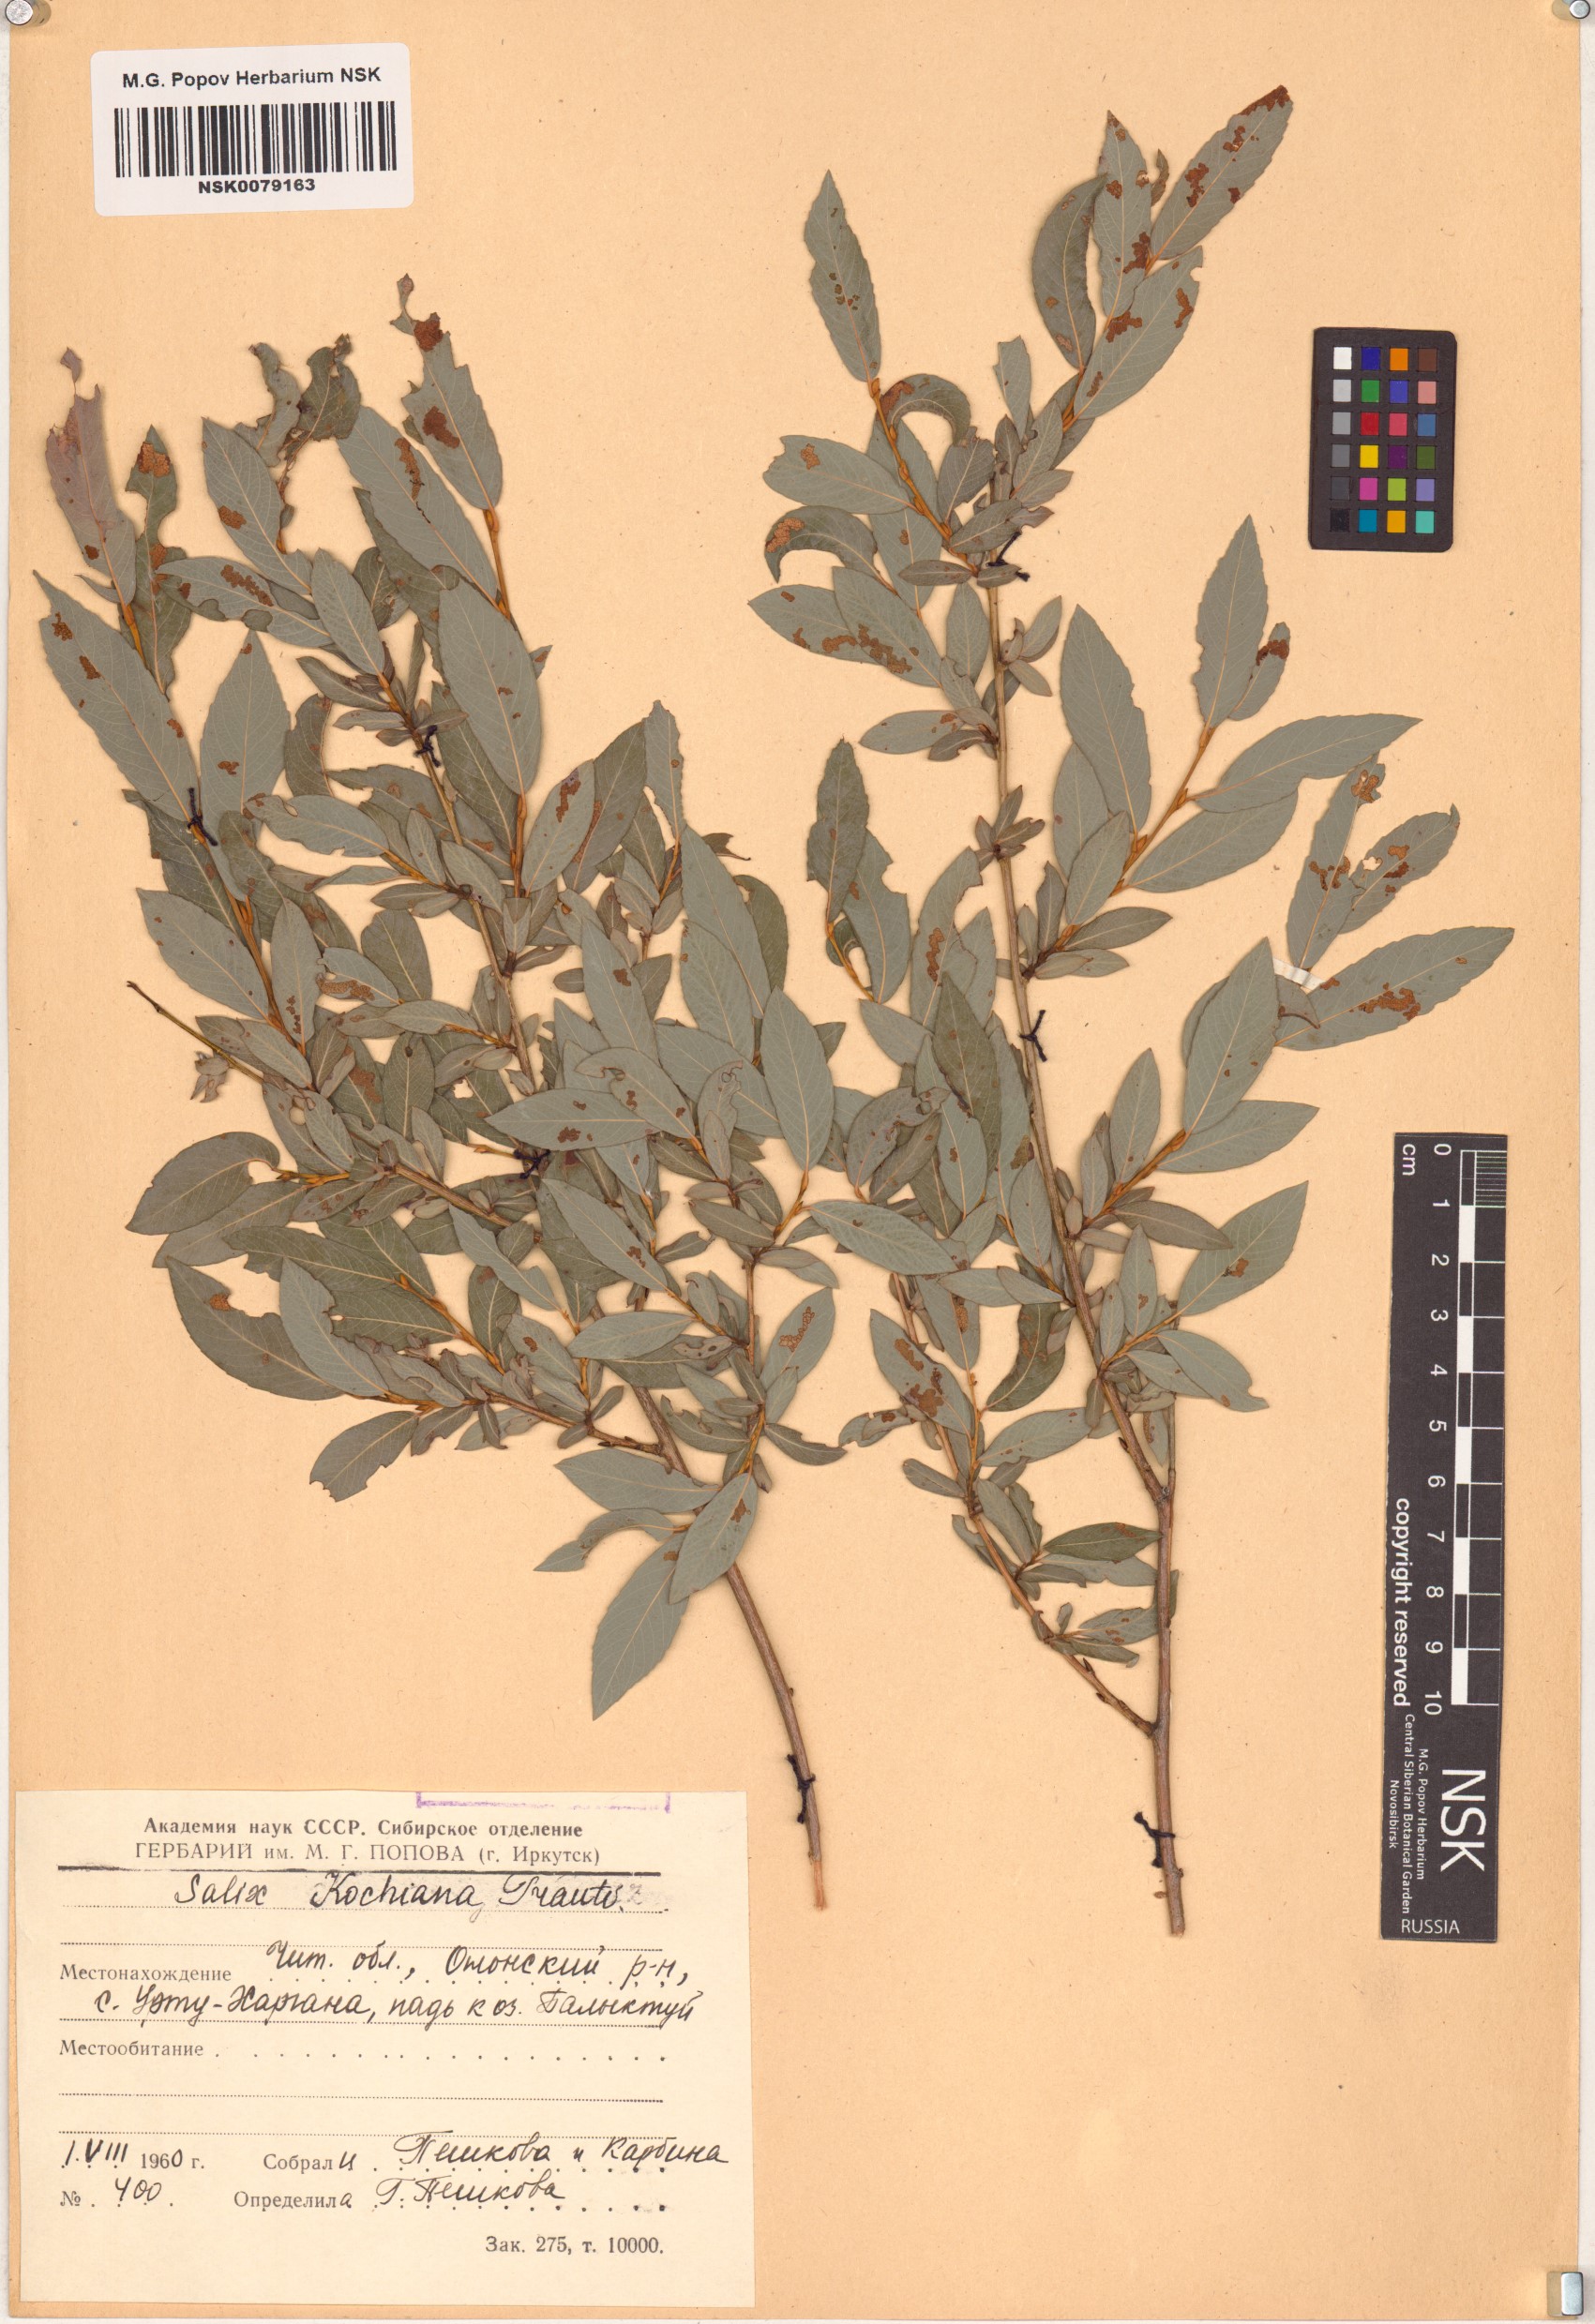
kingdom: Plantae
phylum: Tracheophyta
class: Magnoliopsida
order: Malpighiales
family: Salicaceae
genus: Salix
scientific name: Salix kochiana
